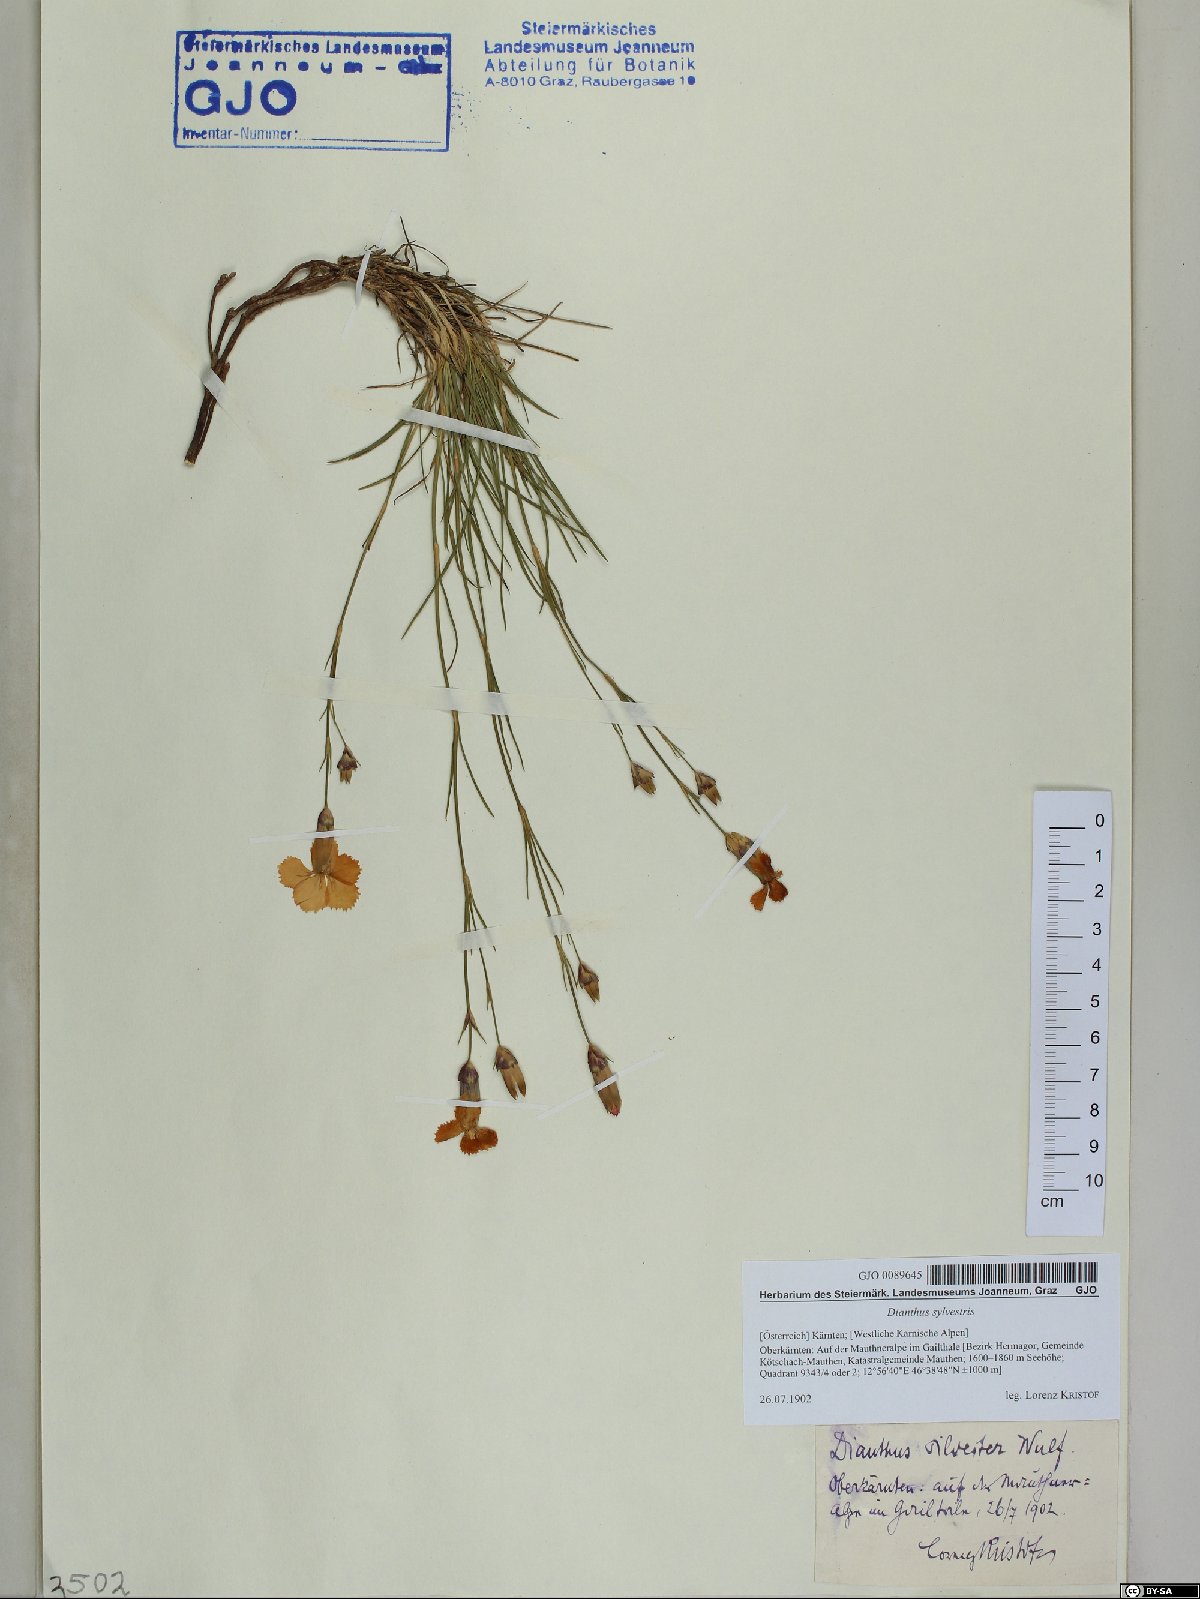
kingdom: Plantae
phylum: Tracheophyta
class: Magnoliopsida
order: Caryophyllales
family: Caryophyllaceae
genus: Dianthus
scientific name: Dianthus sylvestris
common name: Wood pink
